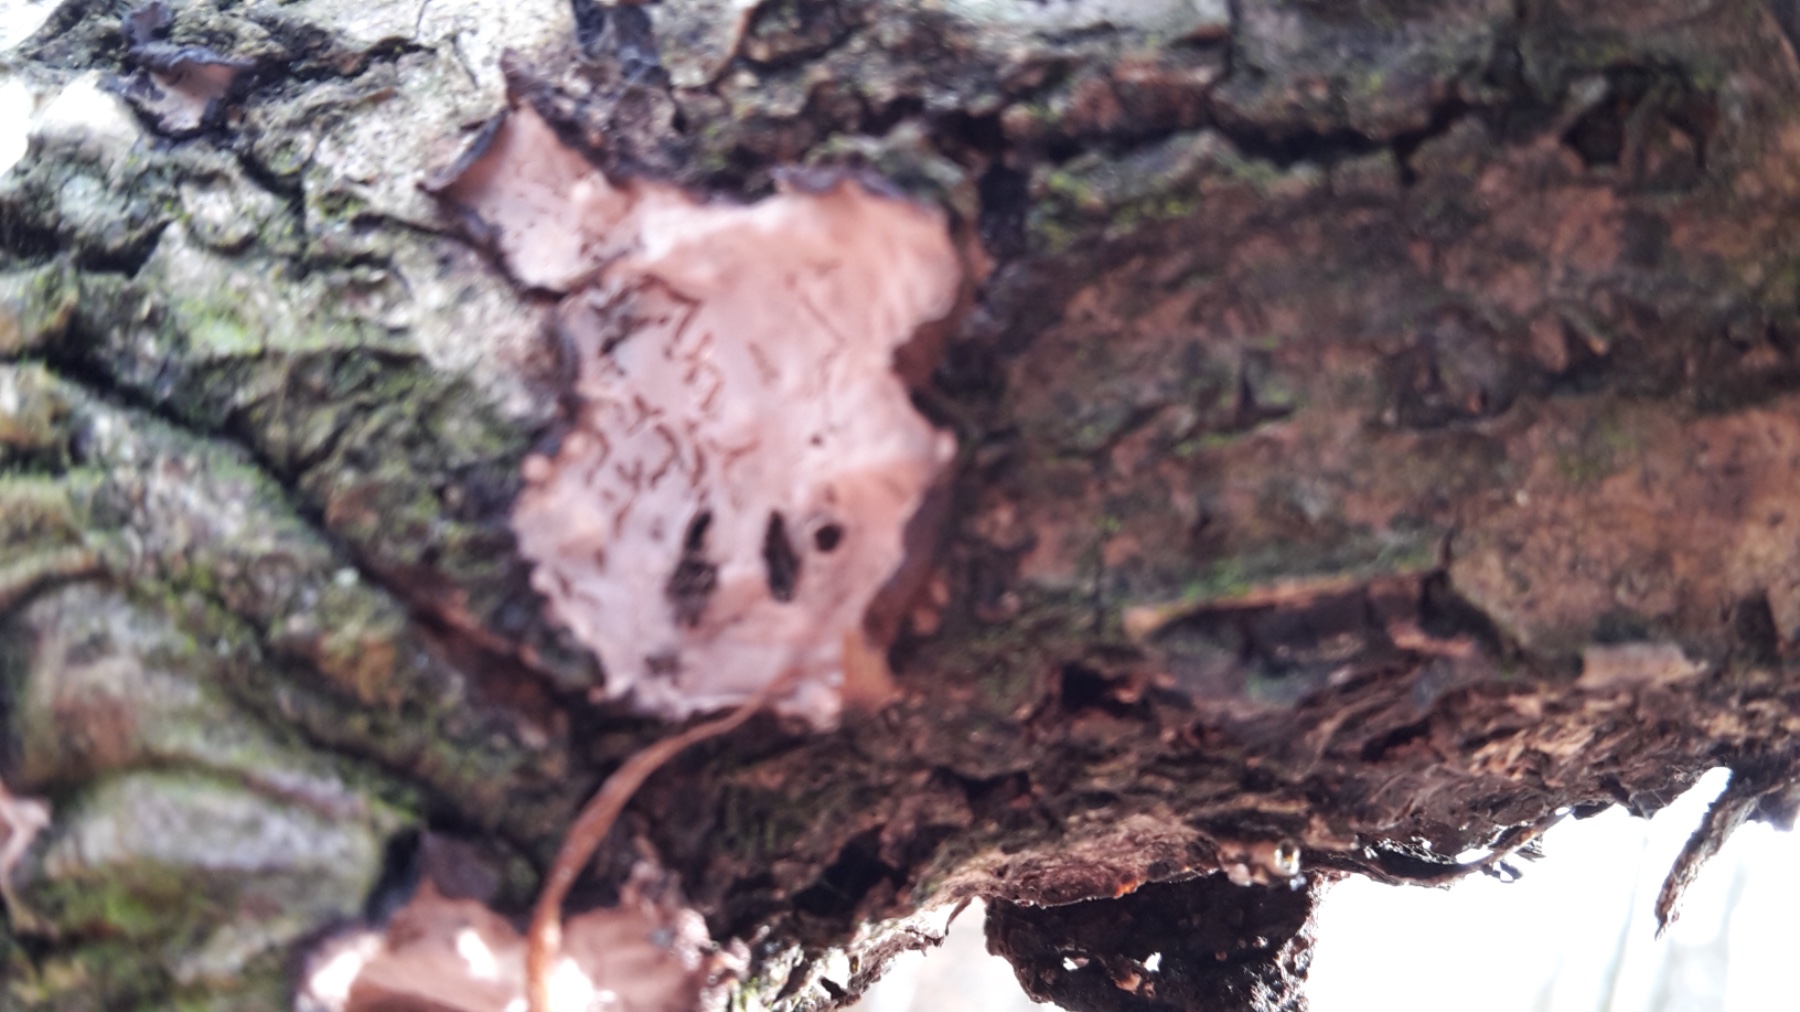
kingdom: Fungi
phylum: Basidiomycota
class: Agaricomycetes
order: Russulales
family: Peniophoraceae
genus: Peniophora
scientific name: Peniophora quercina
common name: ege-voksskind
